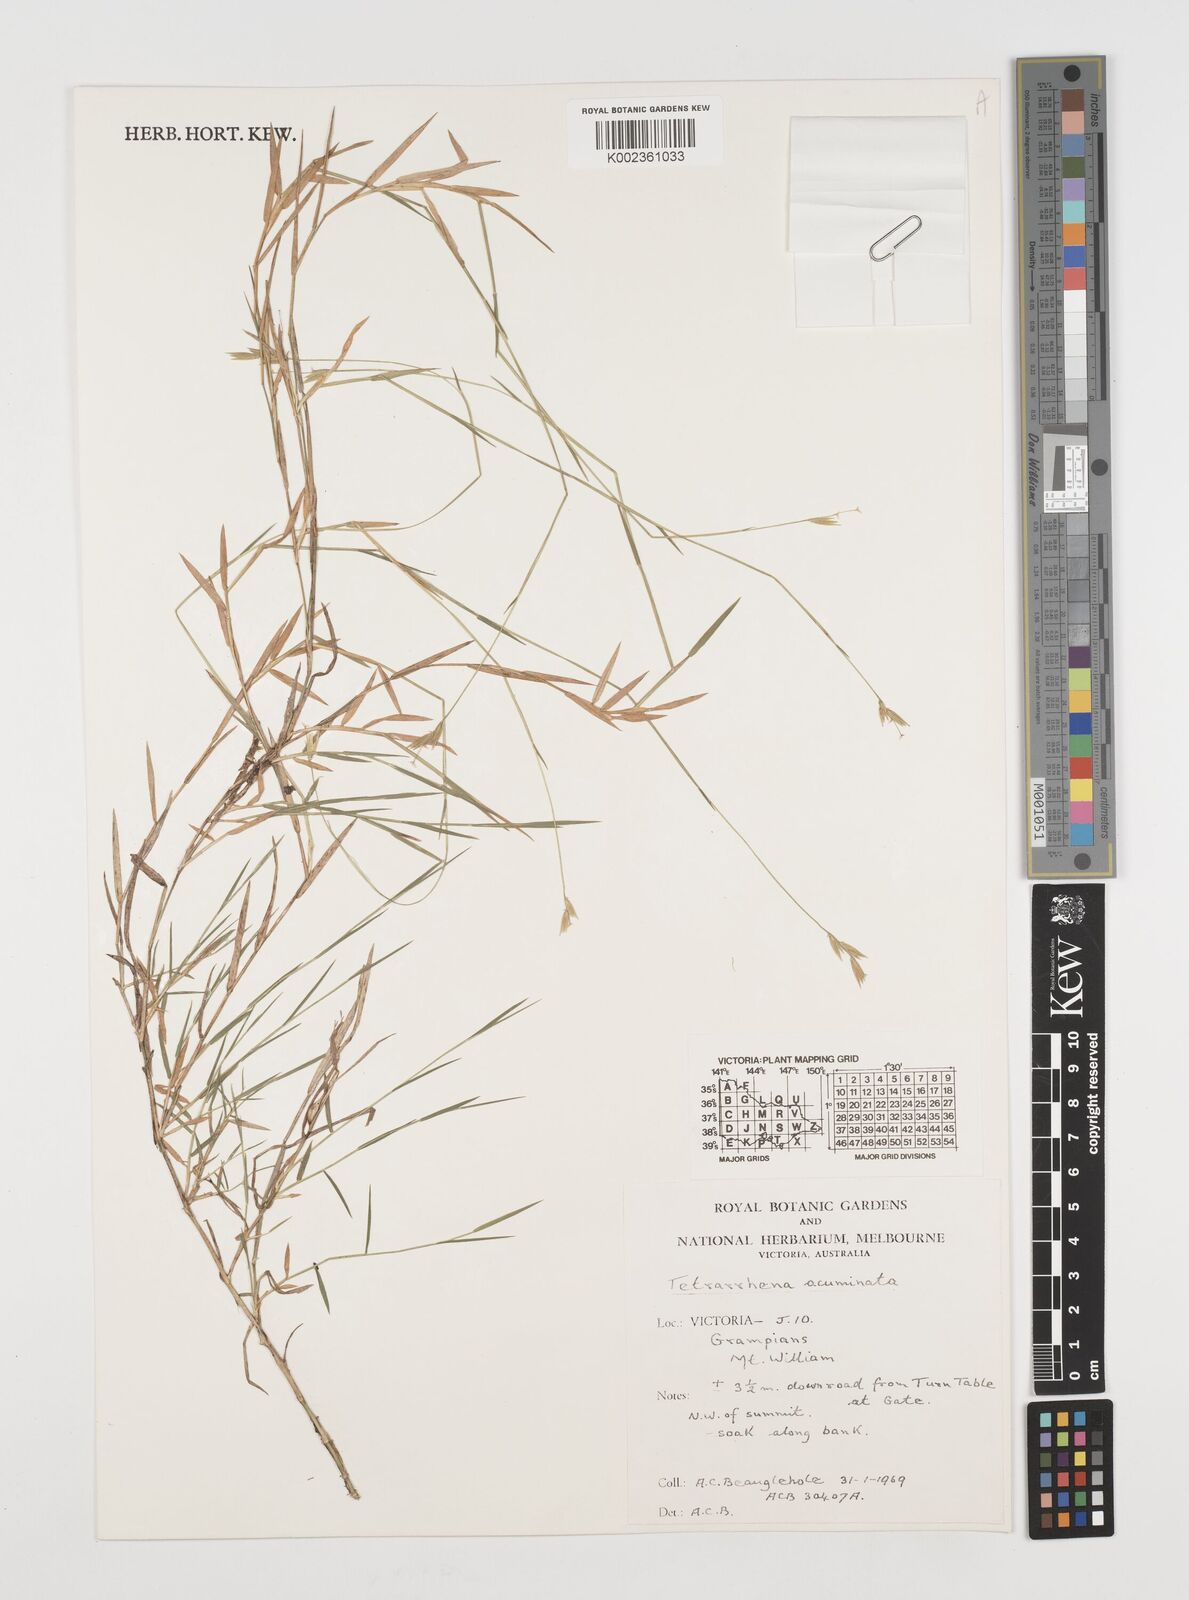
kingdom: Plantae
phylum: Tracheophyta
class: Liliopsida
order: Poales
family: Poaceae
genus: Tetrarrhena
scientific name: Tetrarrhena acuminata
